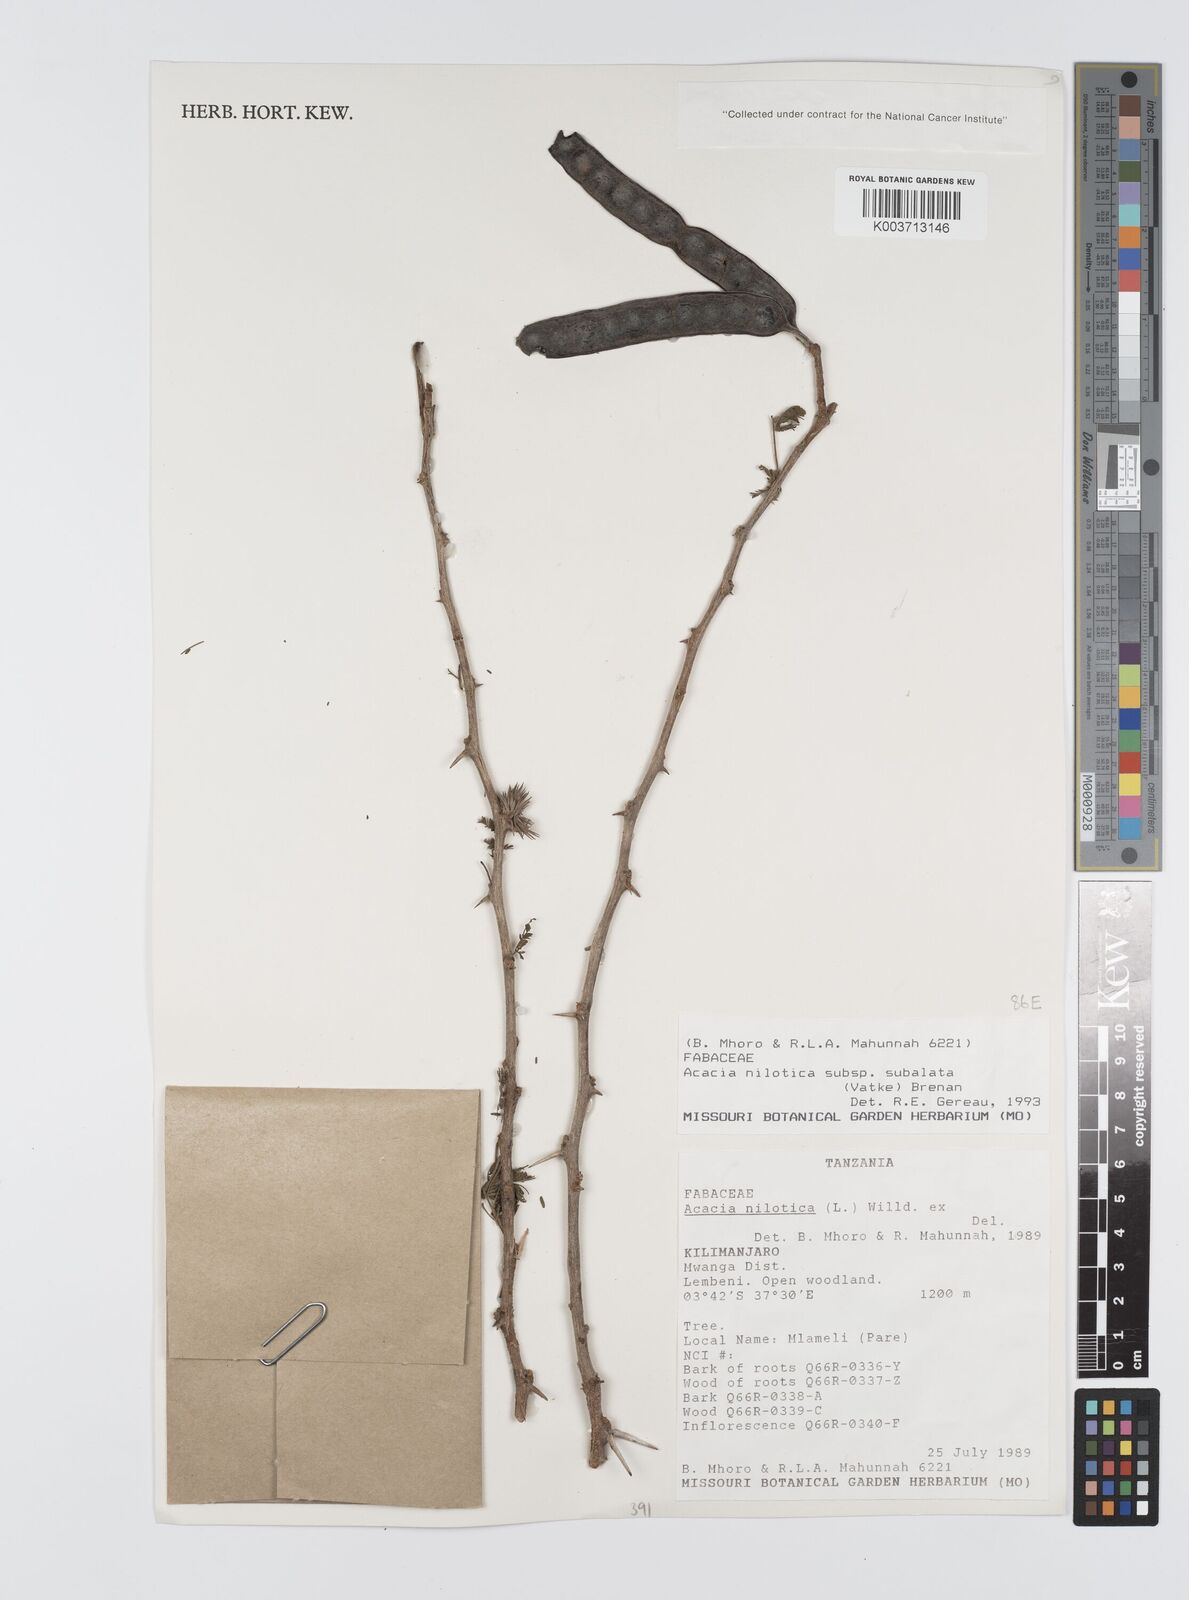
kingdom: Plantae
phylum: Tracheophyta
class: Magnoliopsida
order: Fabales
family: Fabaceae
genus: Vachellia
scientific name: Vachellia nilotica
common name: Arabic gumtree
